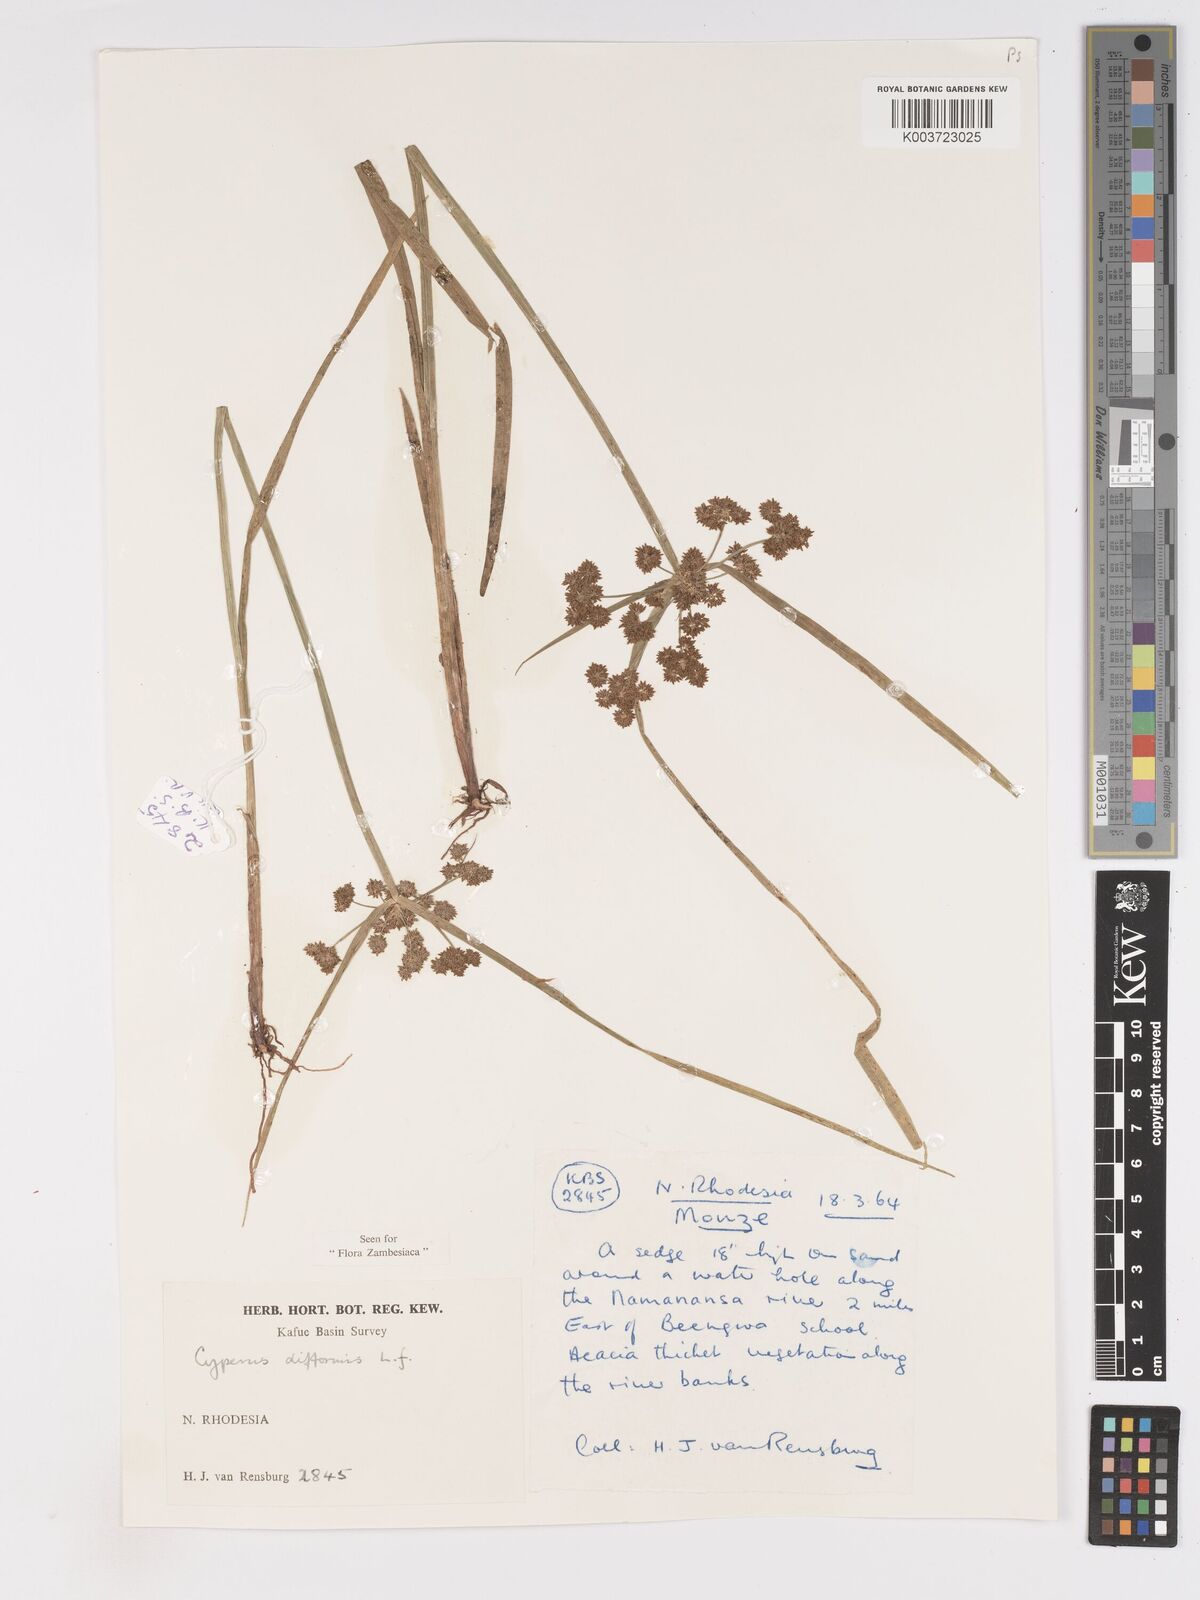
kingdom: Plantae
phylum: Tracheophyta
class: Liliopsida
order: Poales
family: Cyperaceae
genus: Cyperus
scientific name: Cyperus difformis
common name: Variable flatsedge
